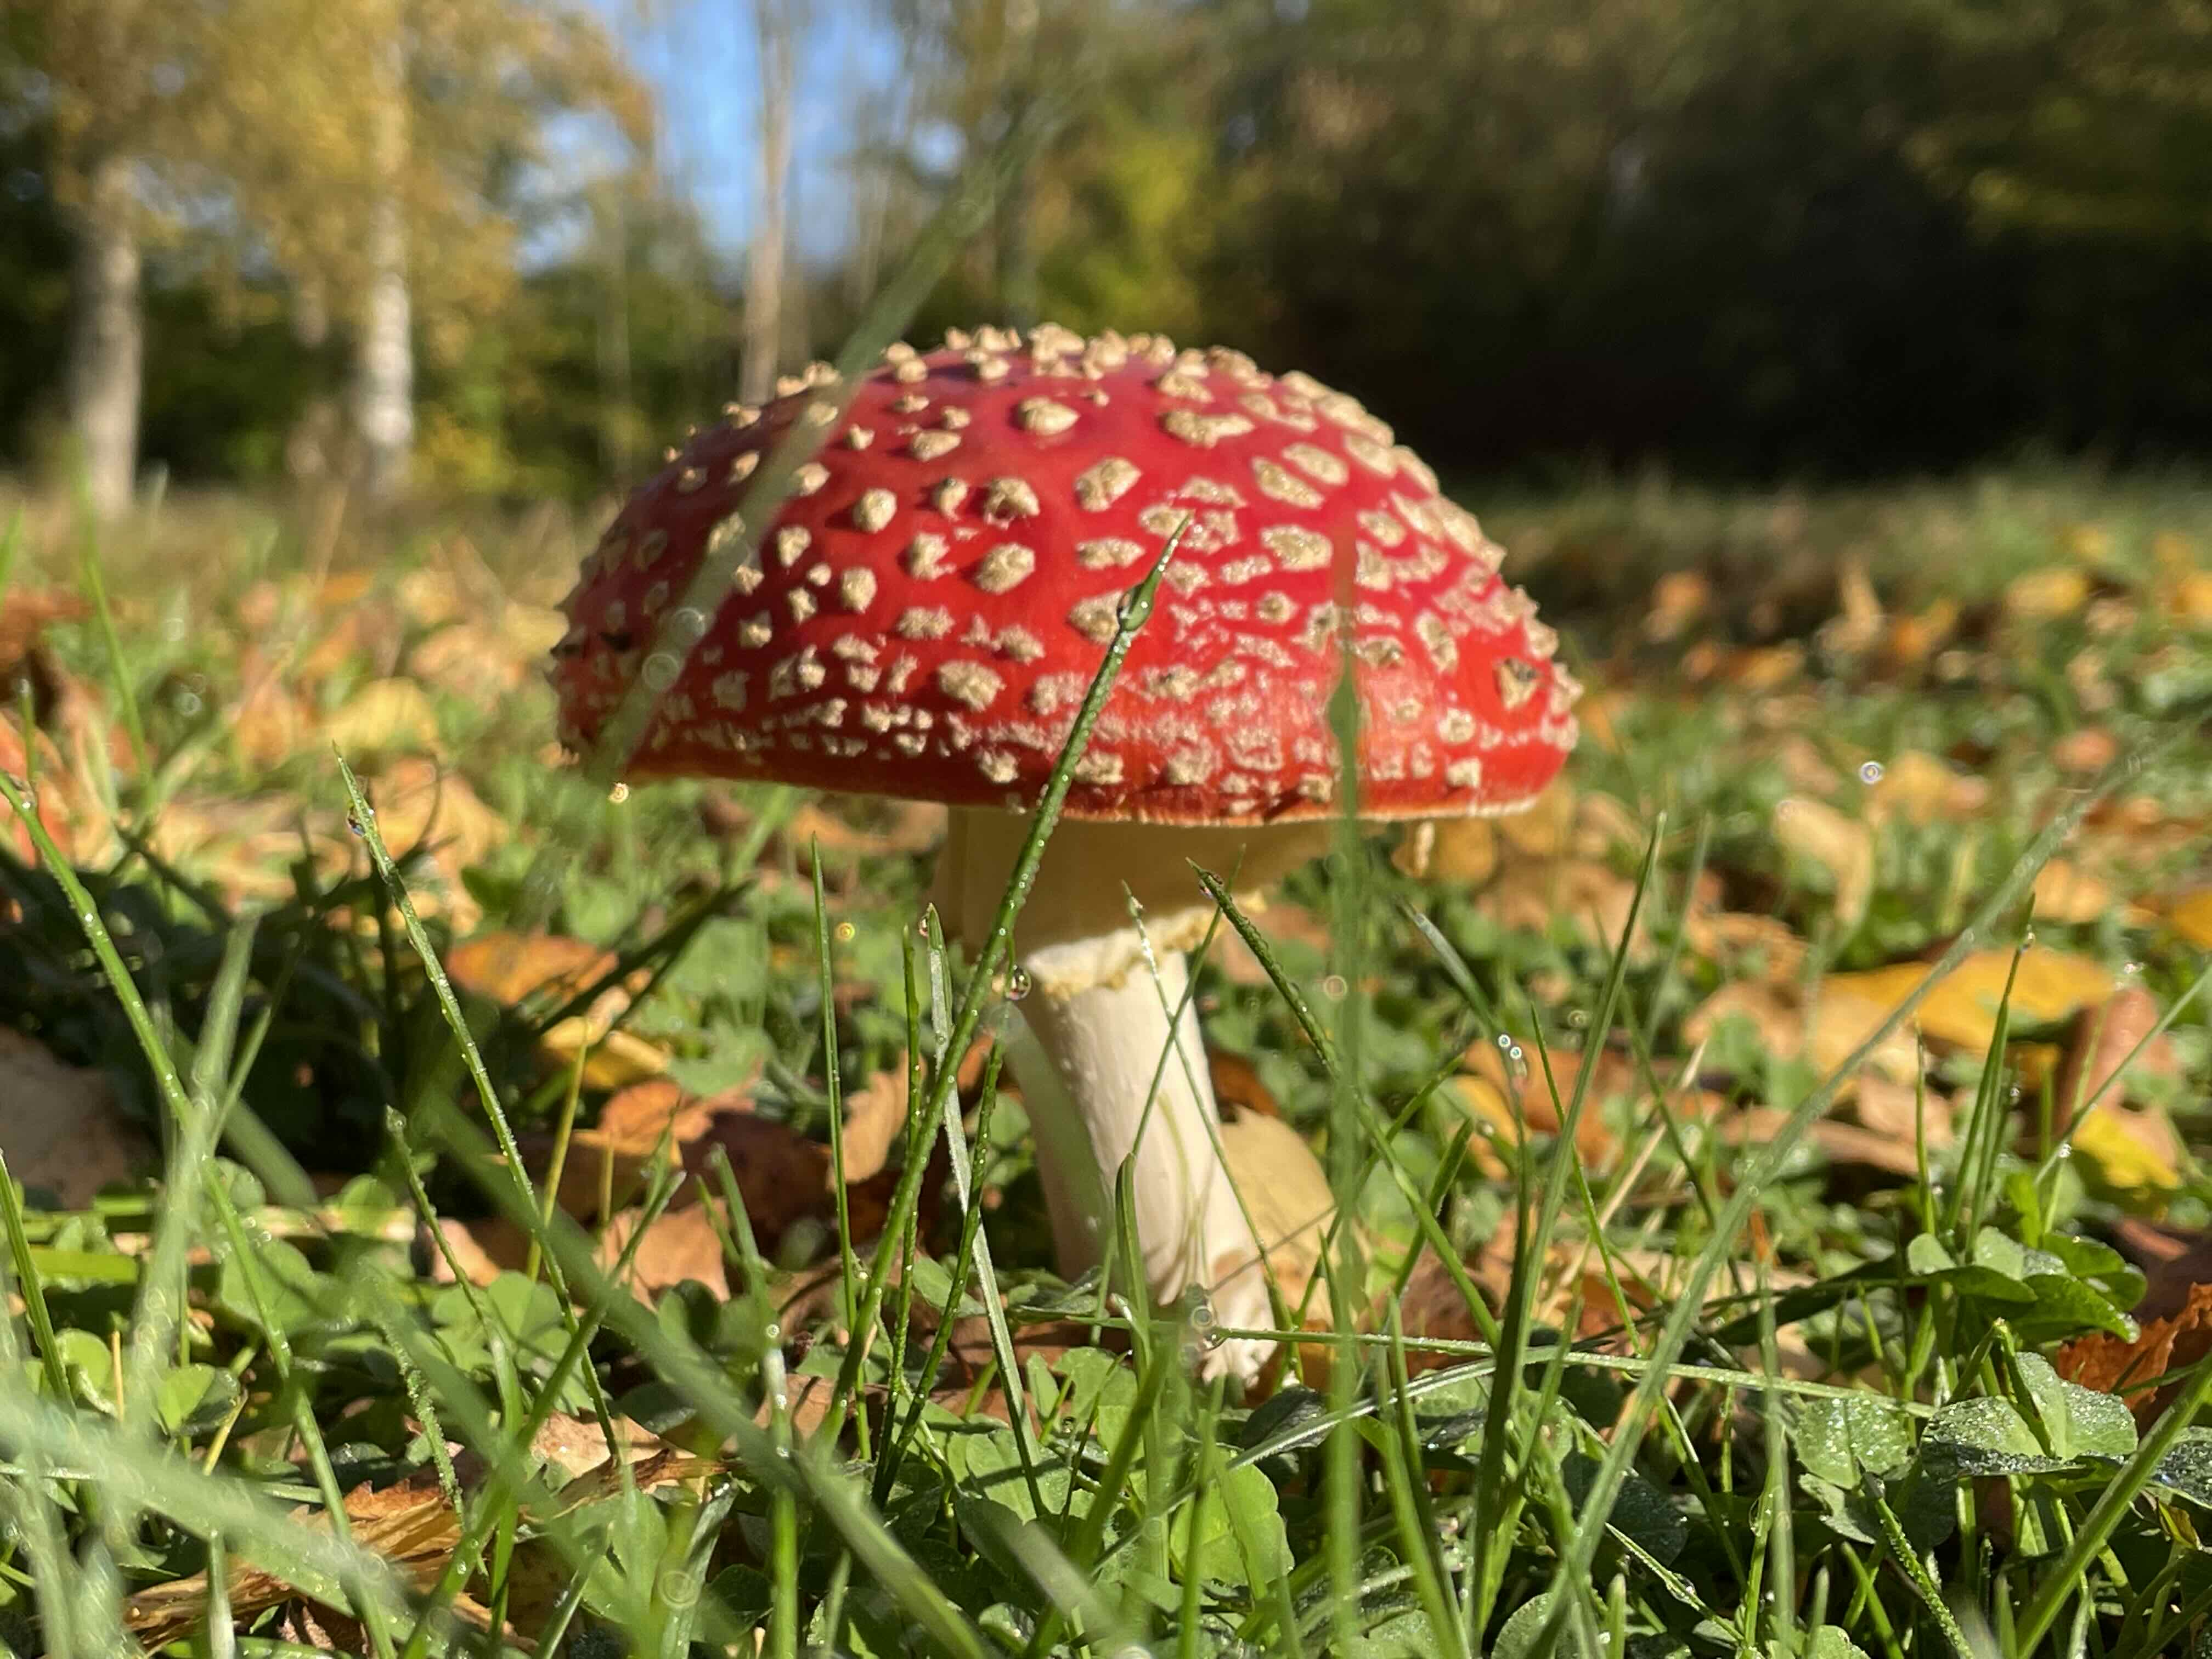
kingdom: Fungi
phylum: Basidiomycota
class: Agaricomycetes
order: Agaricales
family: Amanitaceae
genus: Amanita
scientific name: Amanita muscaria
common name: rød fluesvamp
